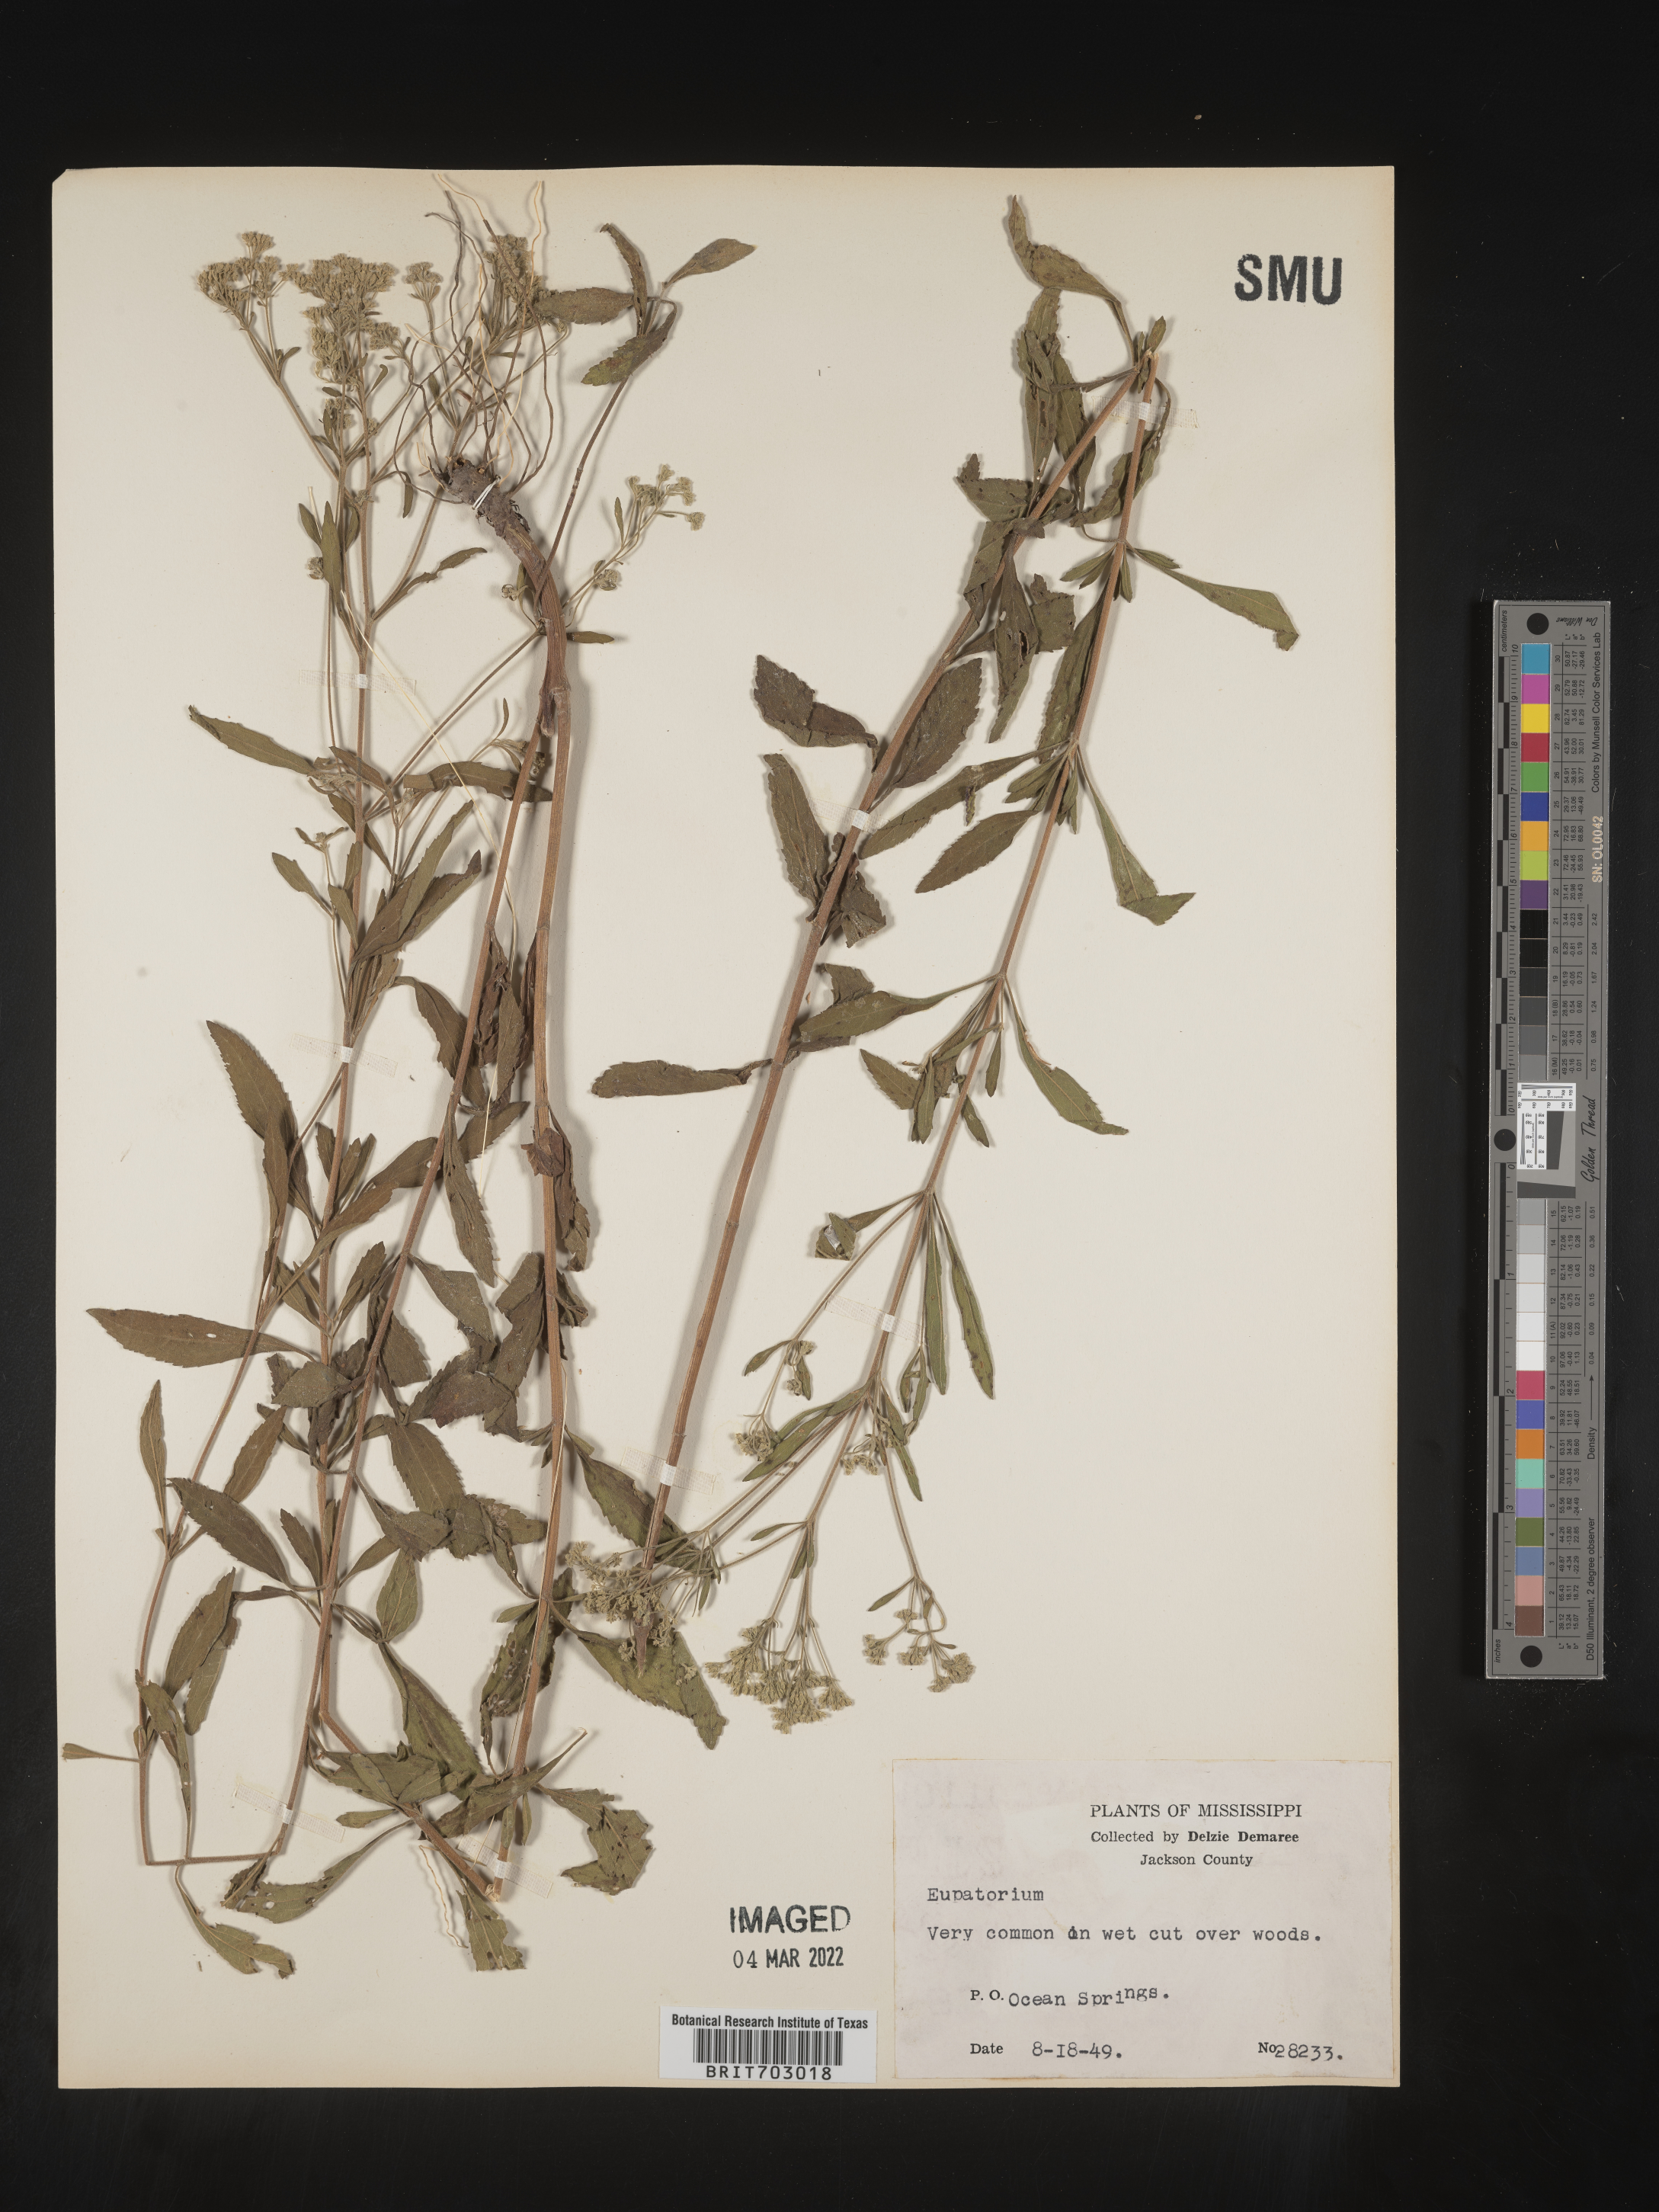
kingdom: Plantae
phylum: Tracheophyta
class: Magnoliopsida
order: Asterales
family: Asteraceae
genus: Eupatorium
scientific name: Eupatorium
